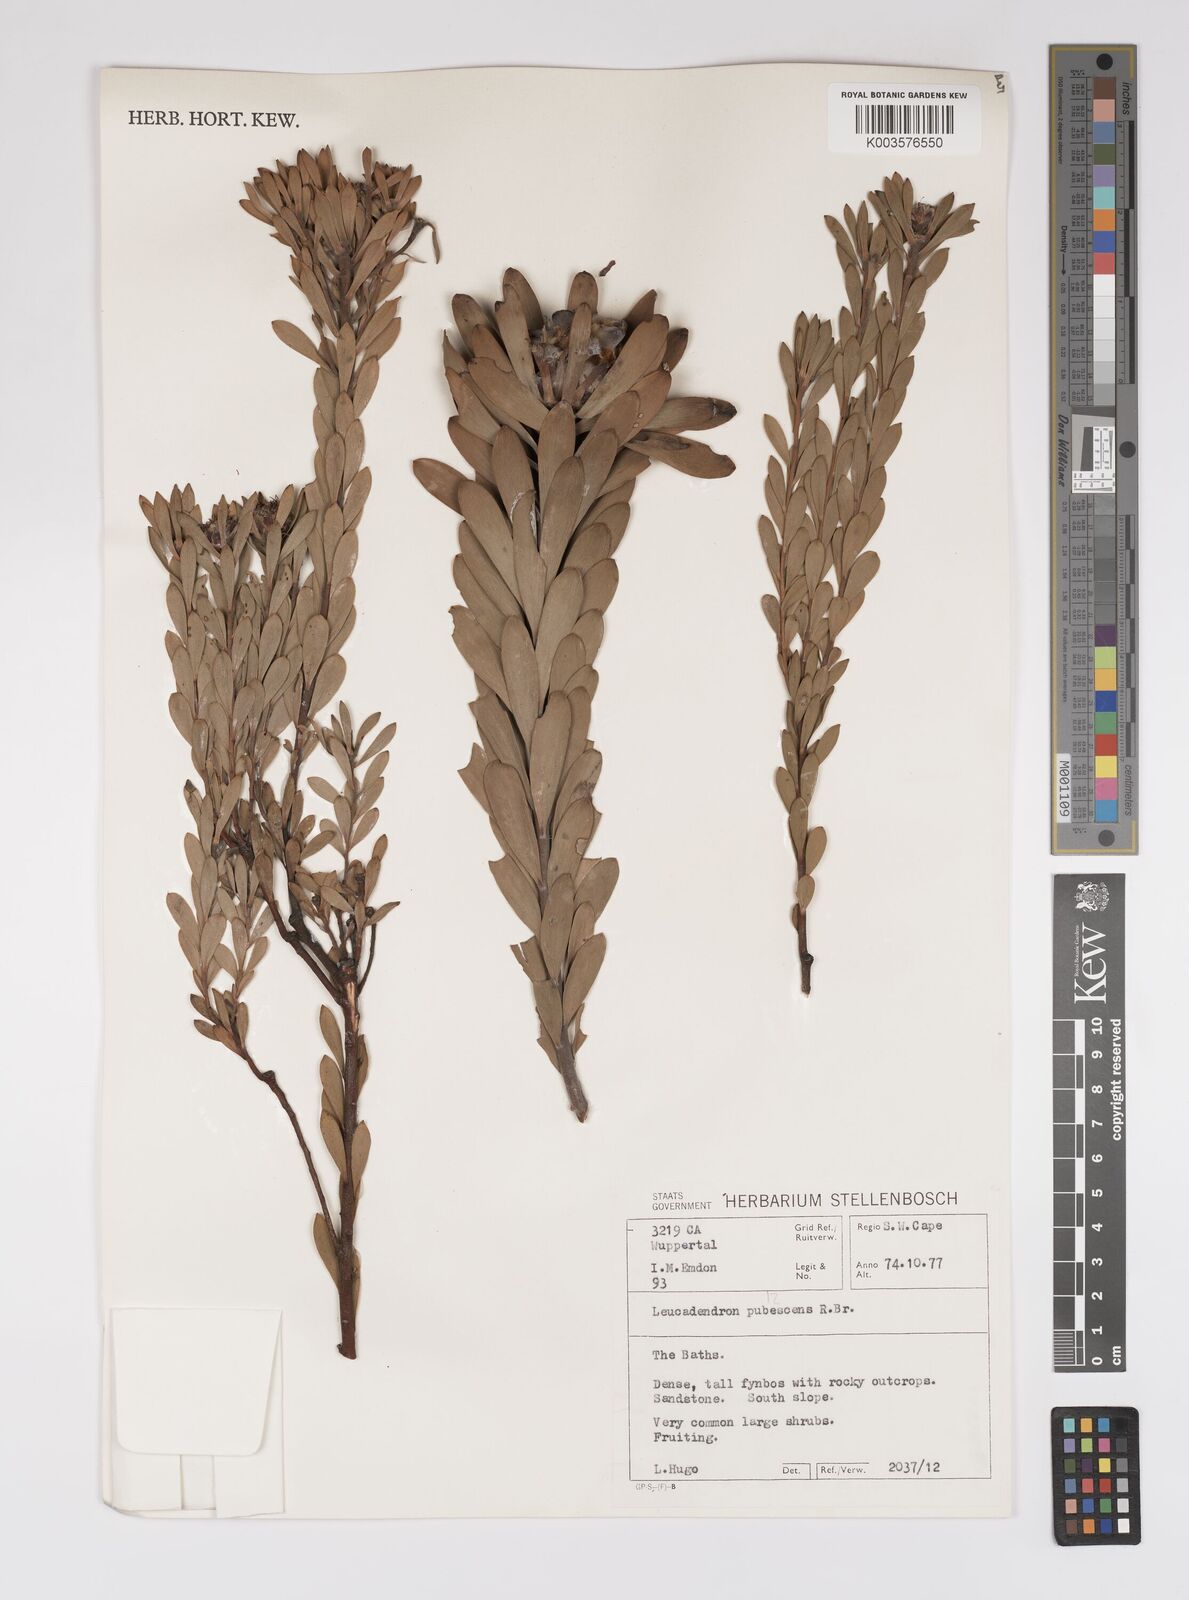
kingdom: Plantae
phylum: Tracheophyta
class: Magnoliopsida
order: Proteales
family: Proteaceae
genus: Leucadendron
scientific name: Leucadendron pubescens
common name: Grey conebush
